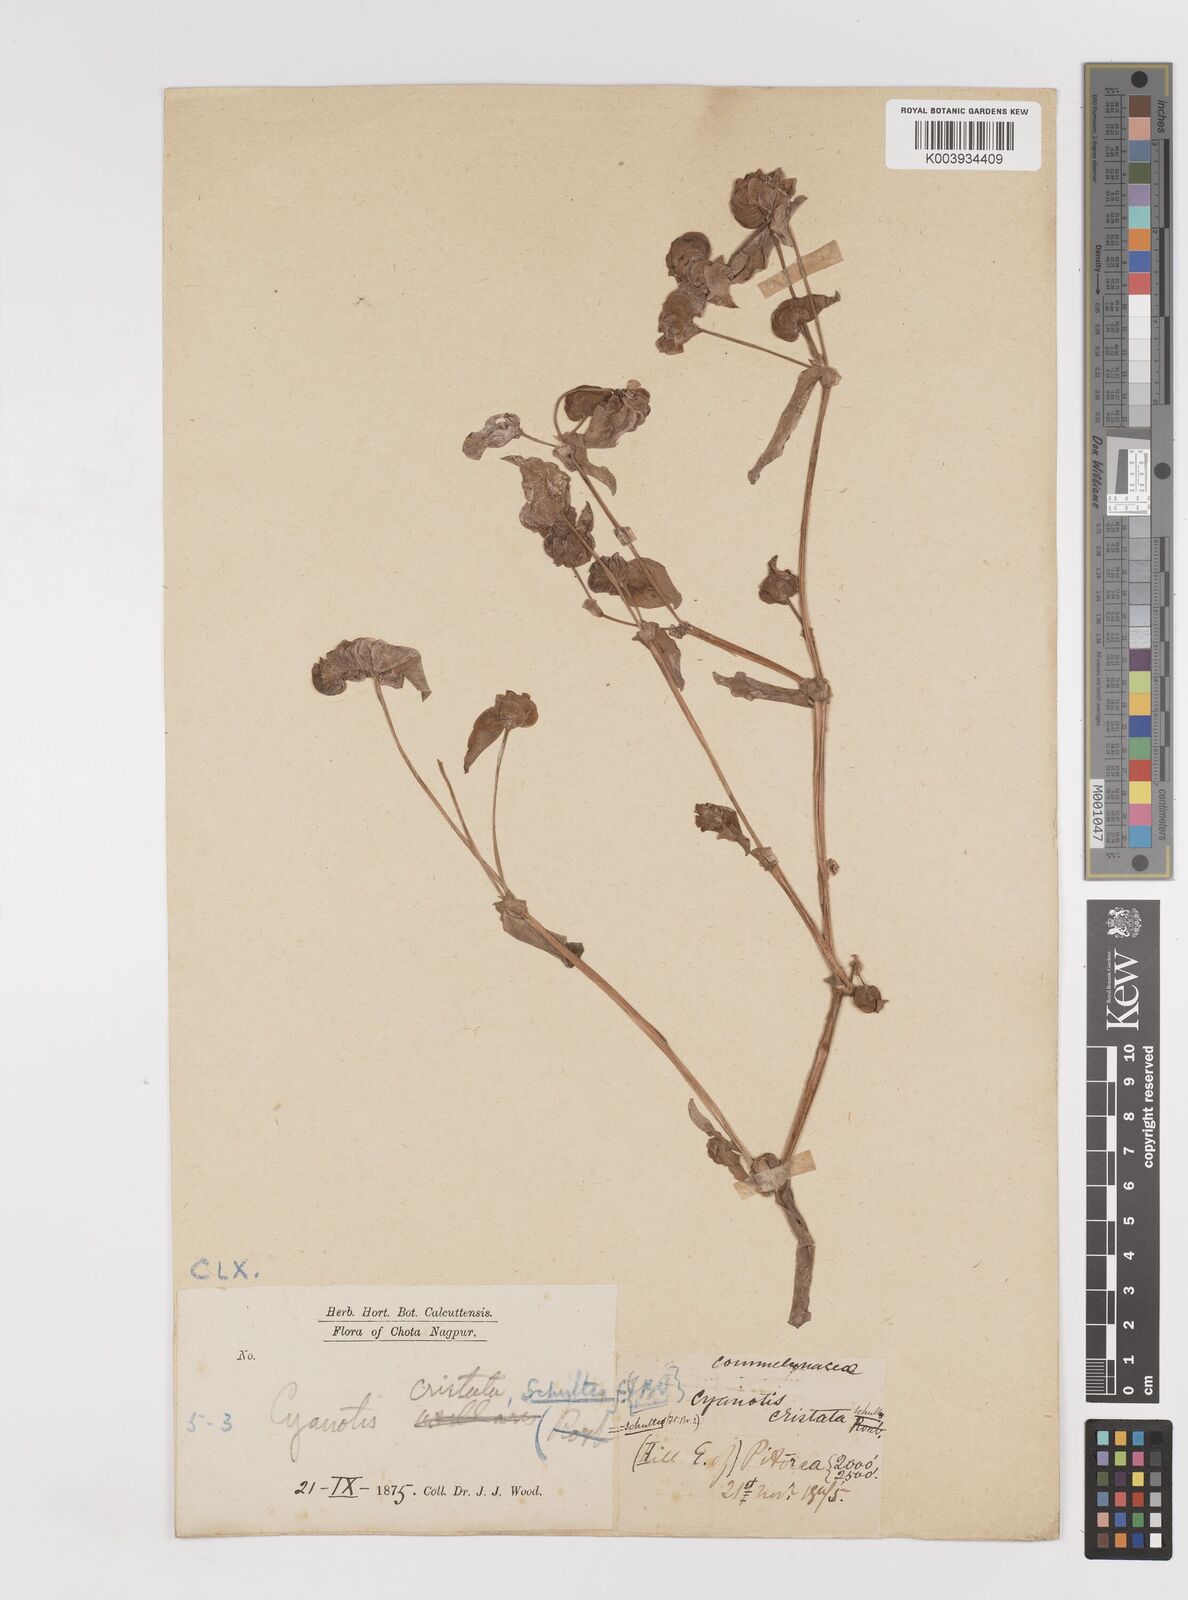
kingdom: Plantae
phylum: Tracheophyta
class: Liliopsida
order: Commelinales
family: Commelinaceae
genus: Cyanotis
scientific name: Cyanotis cristata
